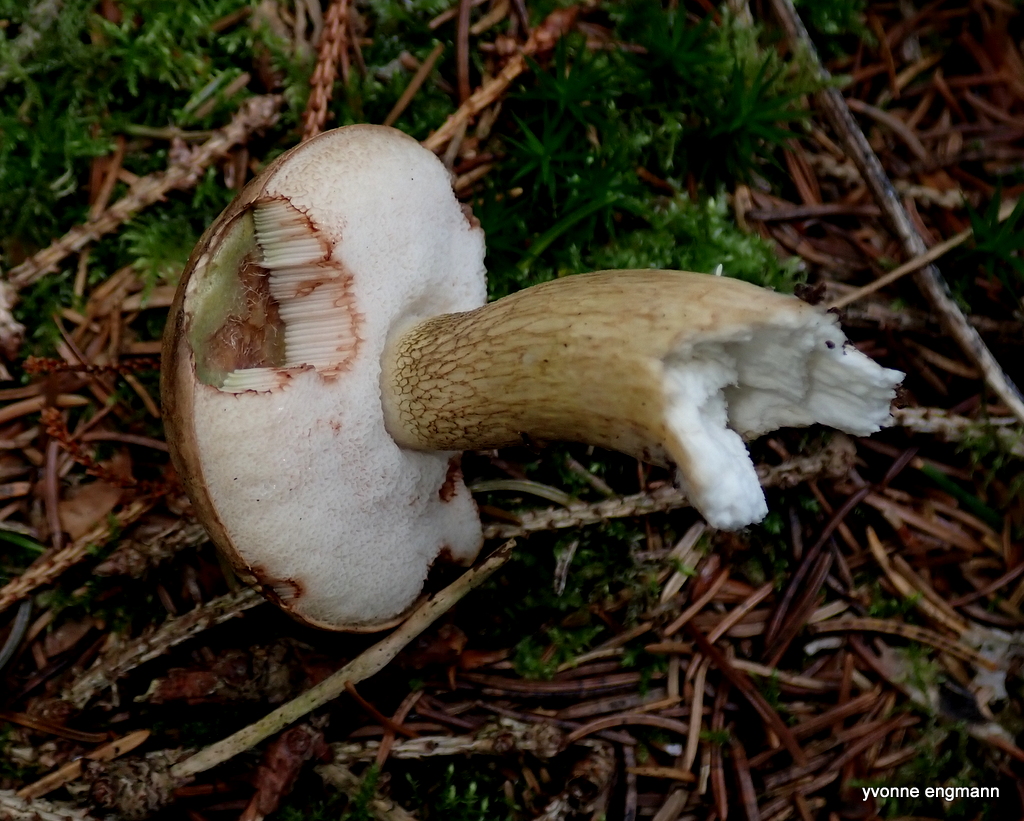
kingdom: Fungi
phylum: Basidiomycota
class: Agaricomycetes
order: Boletales
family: Boletaceae
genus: Tylopilus
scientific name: Tylopilus felleus
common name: galderørhat
